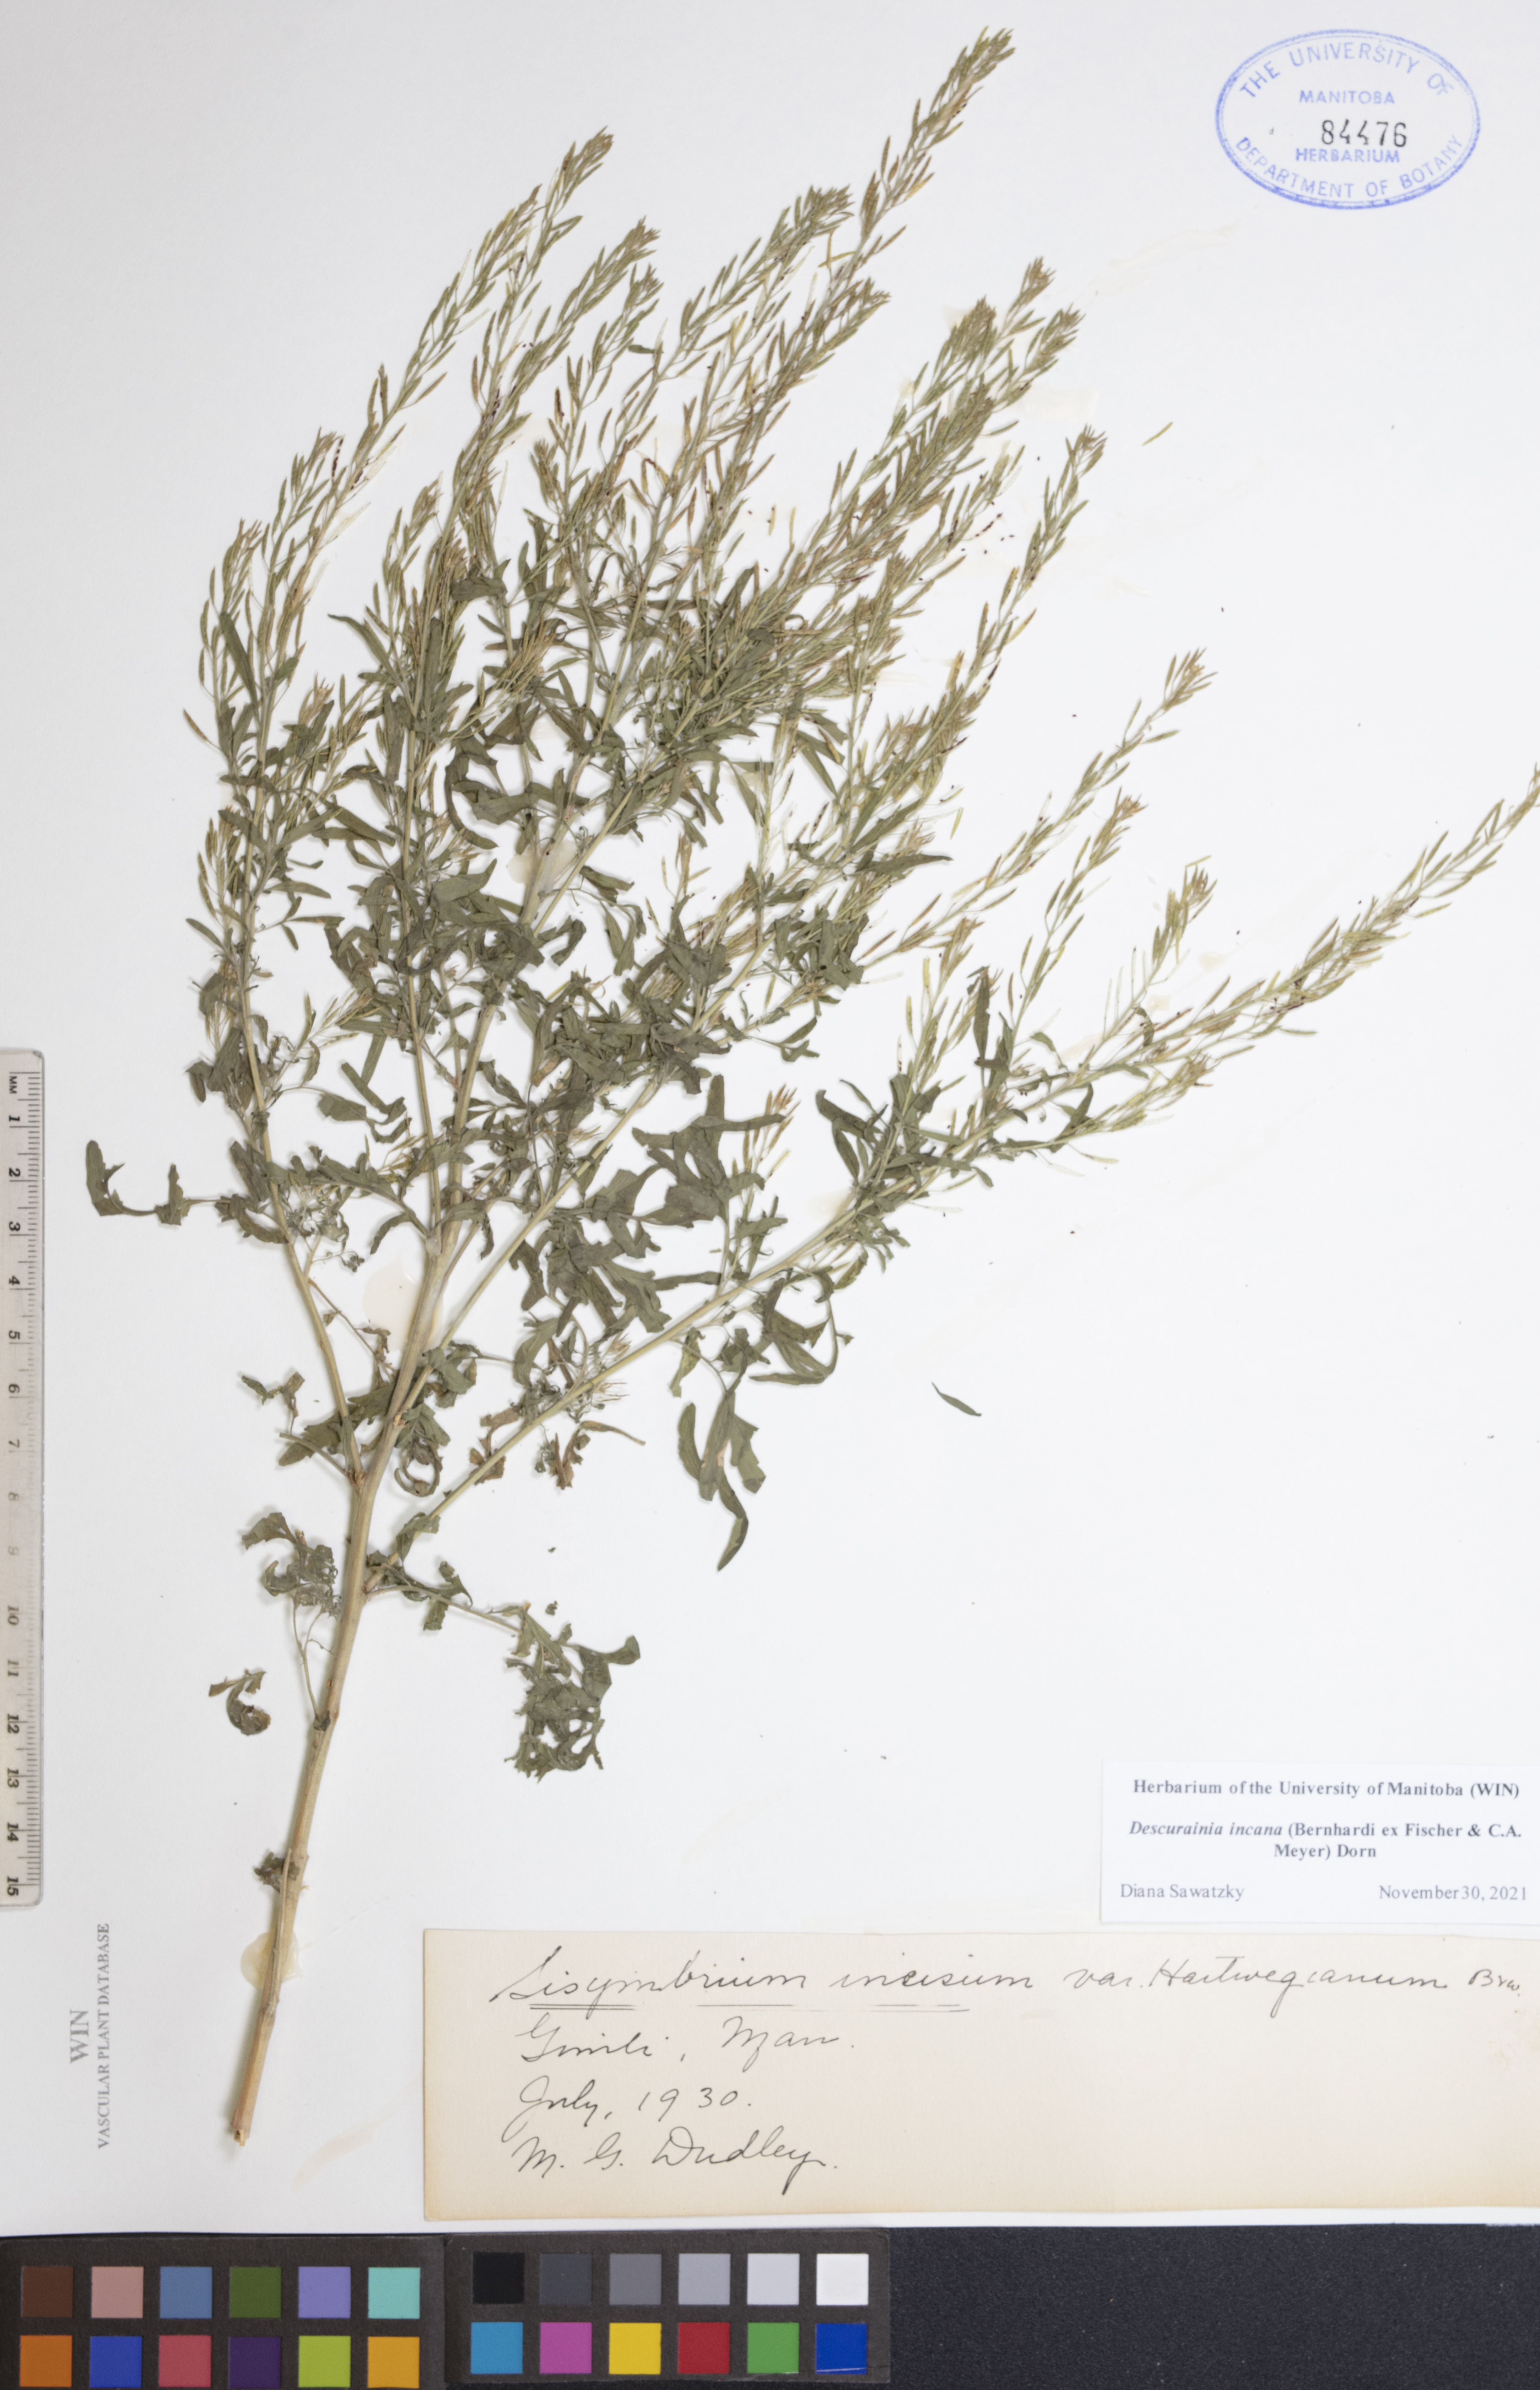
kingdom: Plantae
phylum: Tracheophyta
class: Magnoliopsida
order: Brassicales
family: Brassicaceae
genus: Descurainia
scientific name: Descurainia incana
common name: Gray tansy mustard
